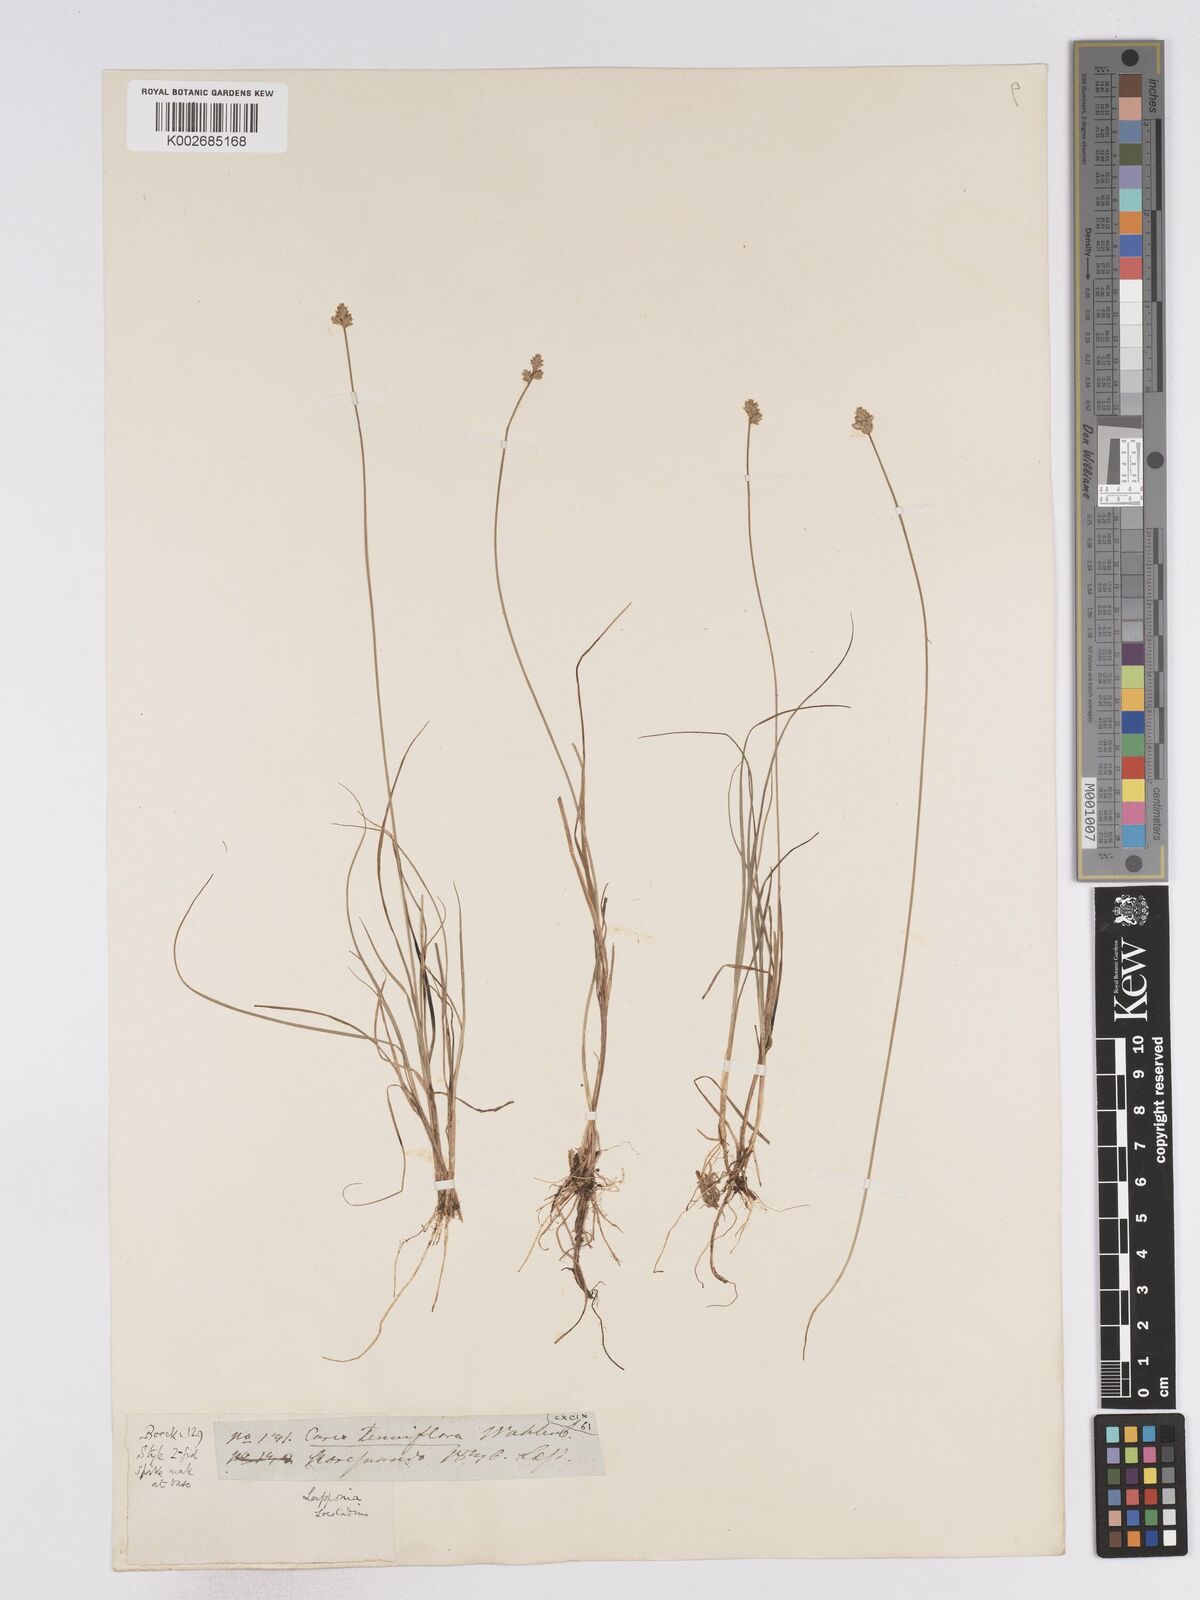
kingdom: Plantae
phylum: Tracheophyta
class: Liliopsida
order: Poales
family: Cyperaceae
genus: Carex
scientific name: Carex tenuiflora
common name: Sparse-flowered sedge
